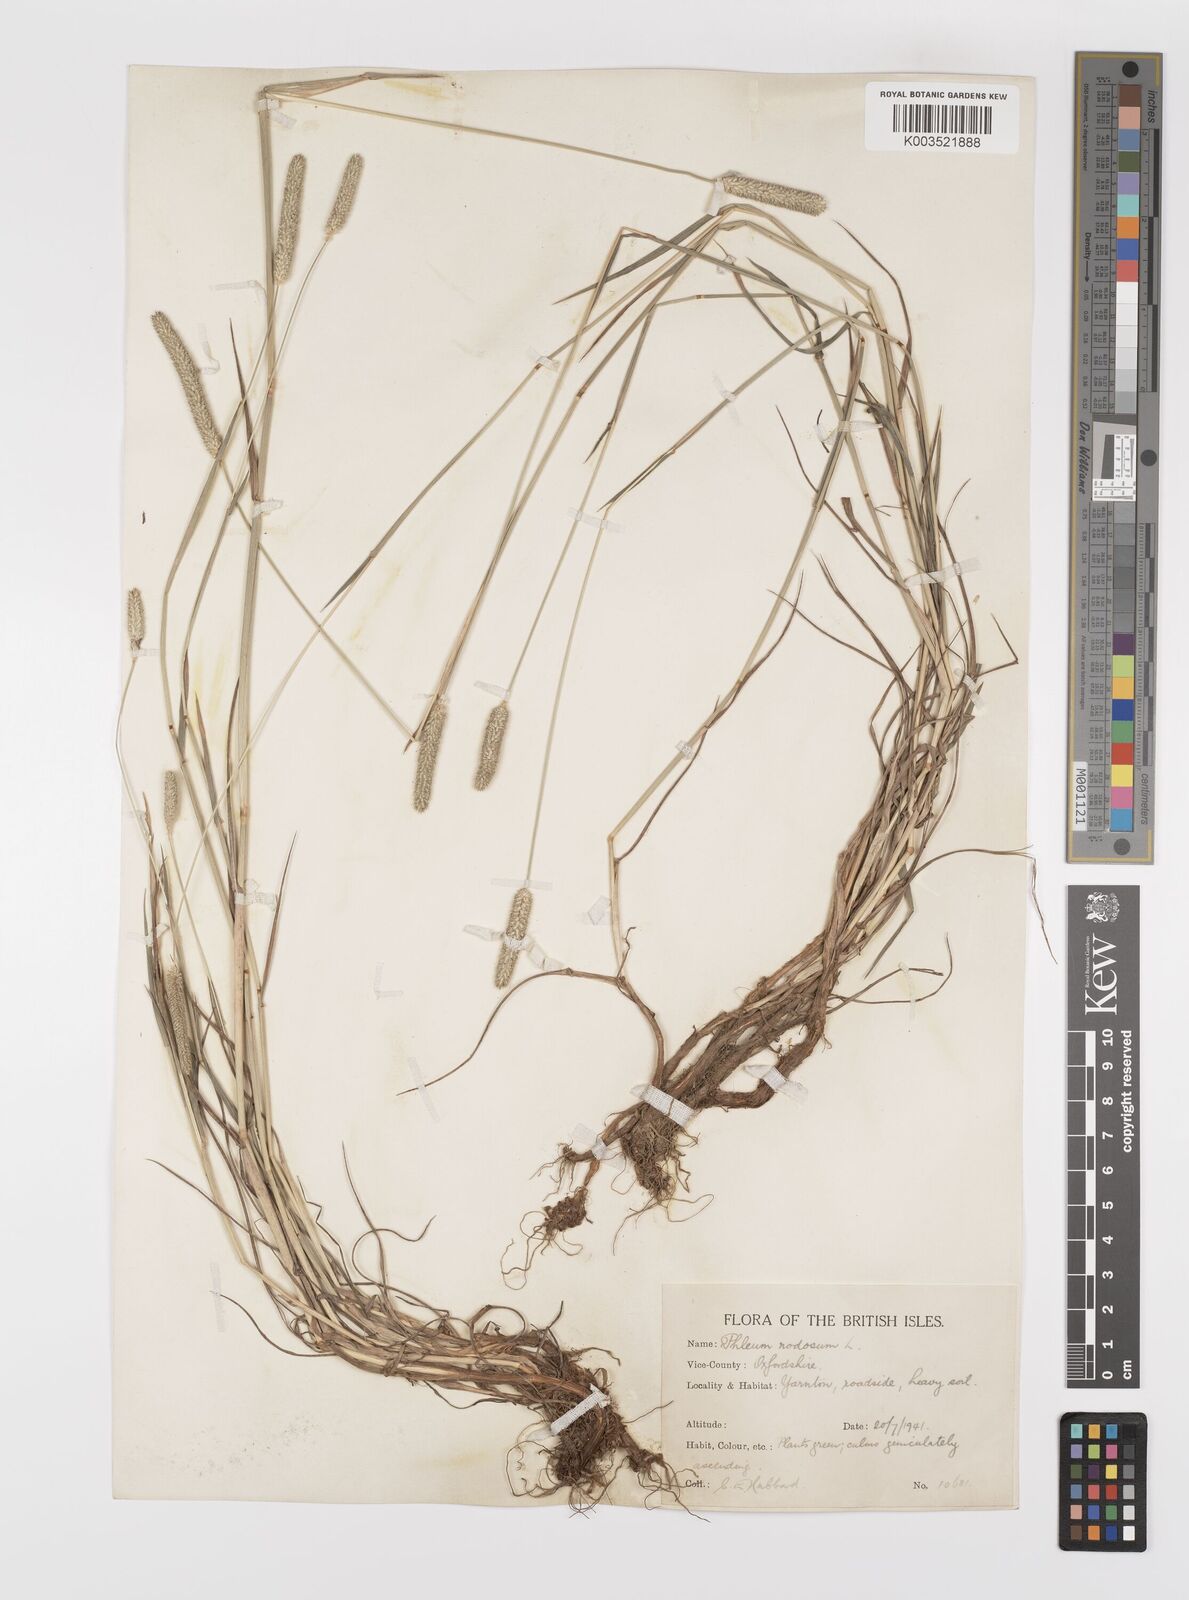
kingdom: Plantae
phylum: Tracheophyta
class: Liliopsida
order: Poales
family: Poaceae
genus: Phleum
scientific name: Phleum bertolonii
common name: Smaller cat's-tail
